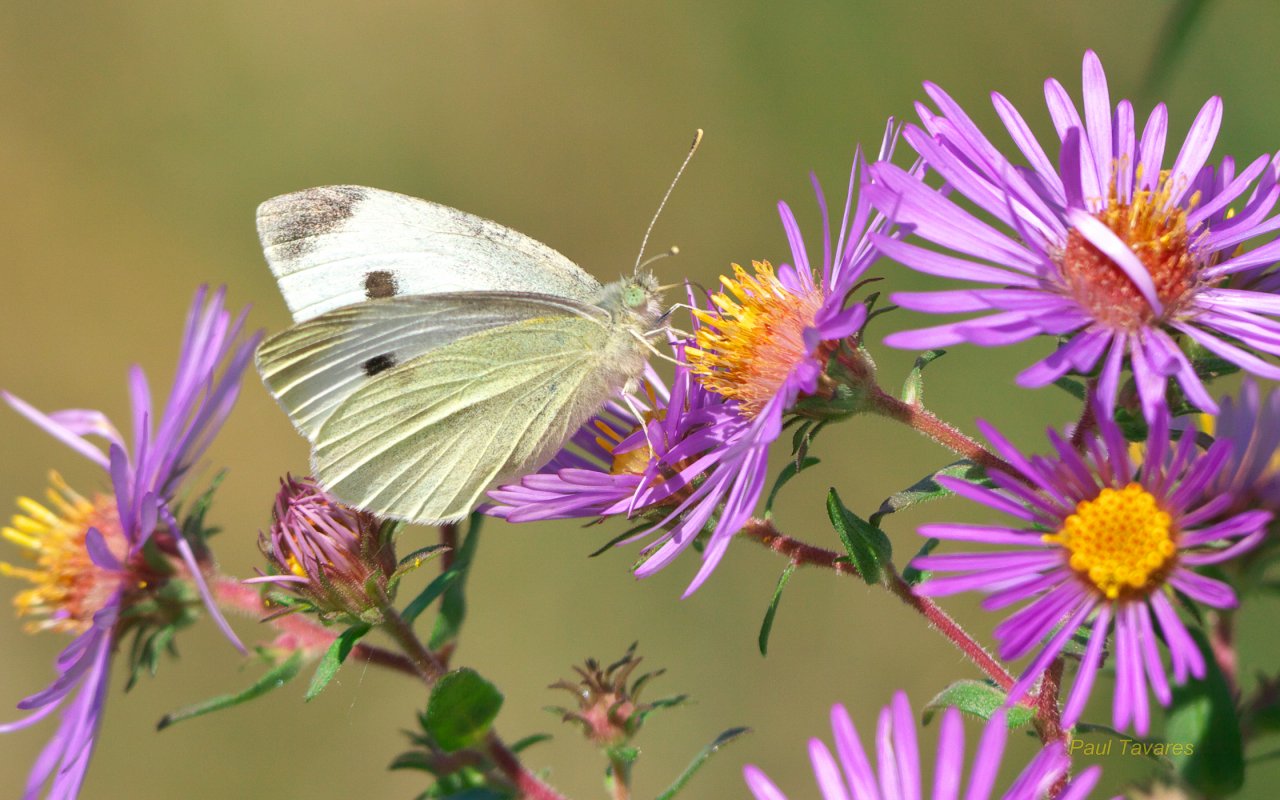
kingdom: Animalia
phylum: Arthropoda
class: Insecta
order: Lepidoptera
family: Pieridae
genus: Pieris
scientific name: Pieris rapae
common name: Cabbage White
